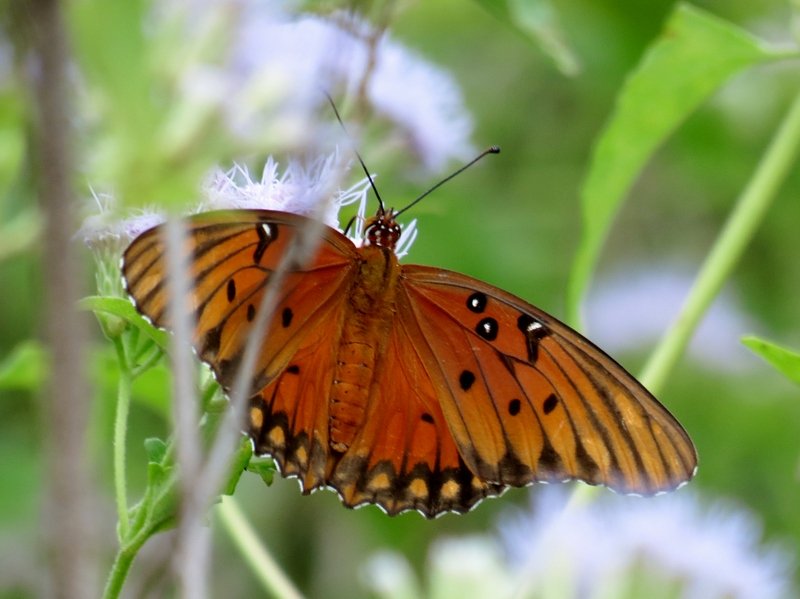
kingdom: Animalia
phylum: Arthropoda
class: Insecta
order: Lepidoptera
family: Nymphalidae
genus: Dione
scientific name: Dione vanillae
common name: Gulf Fritillary
